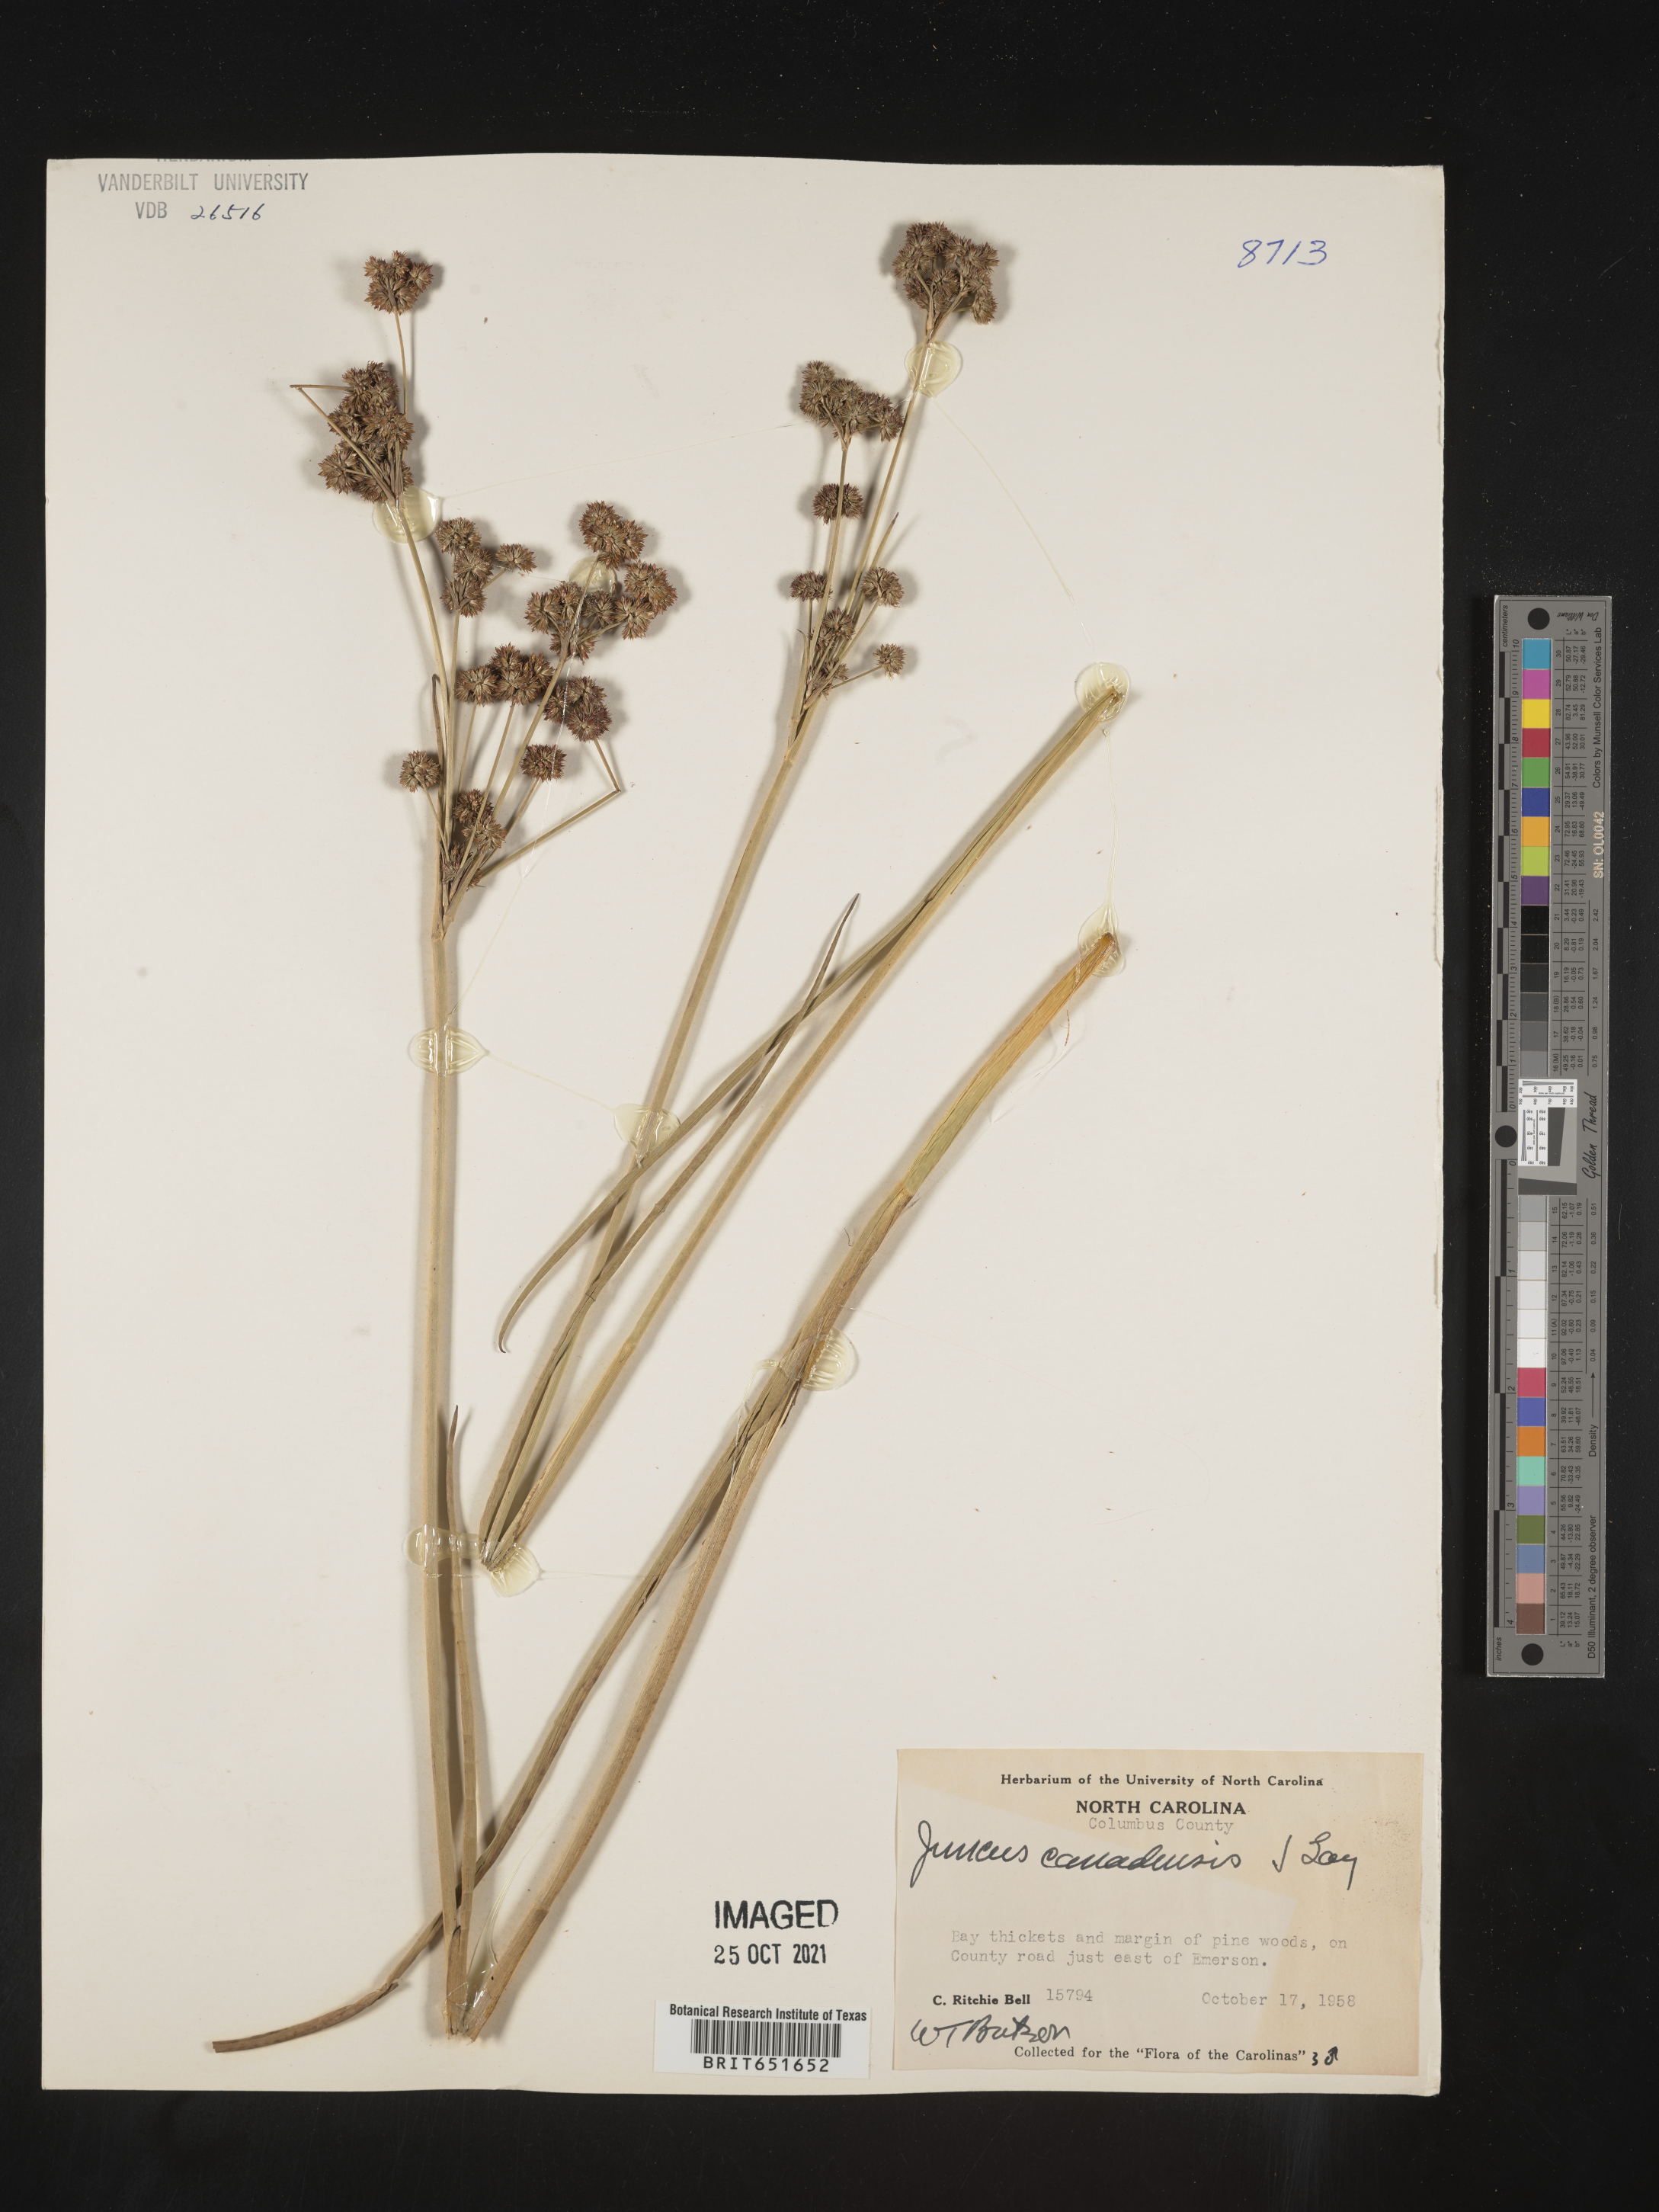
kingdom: Plantae
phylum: Tracheophyta
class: Liliopsida
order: Poales
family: Juncaceae
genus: Juncus
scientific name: Juncus canadensis
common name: Canada rush
